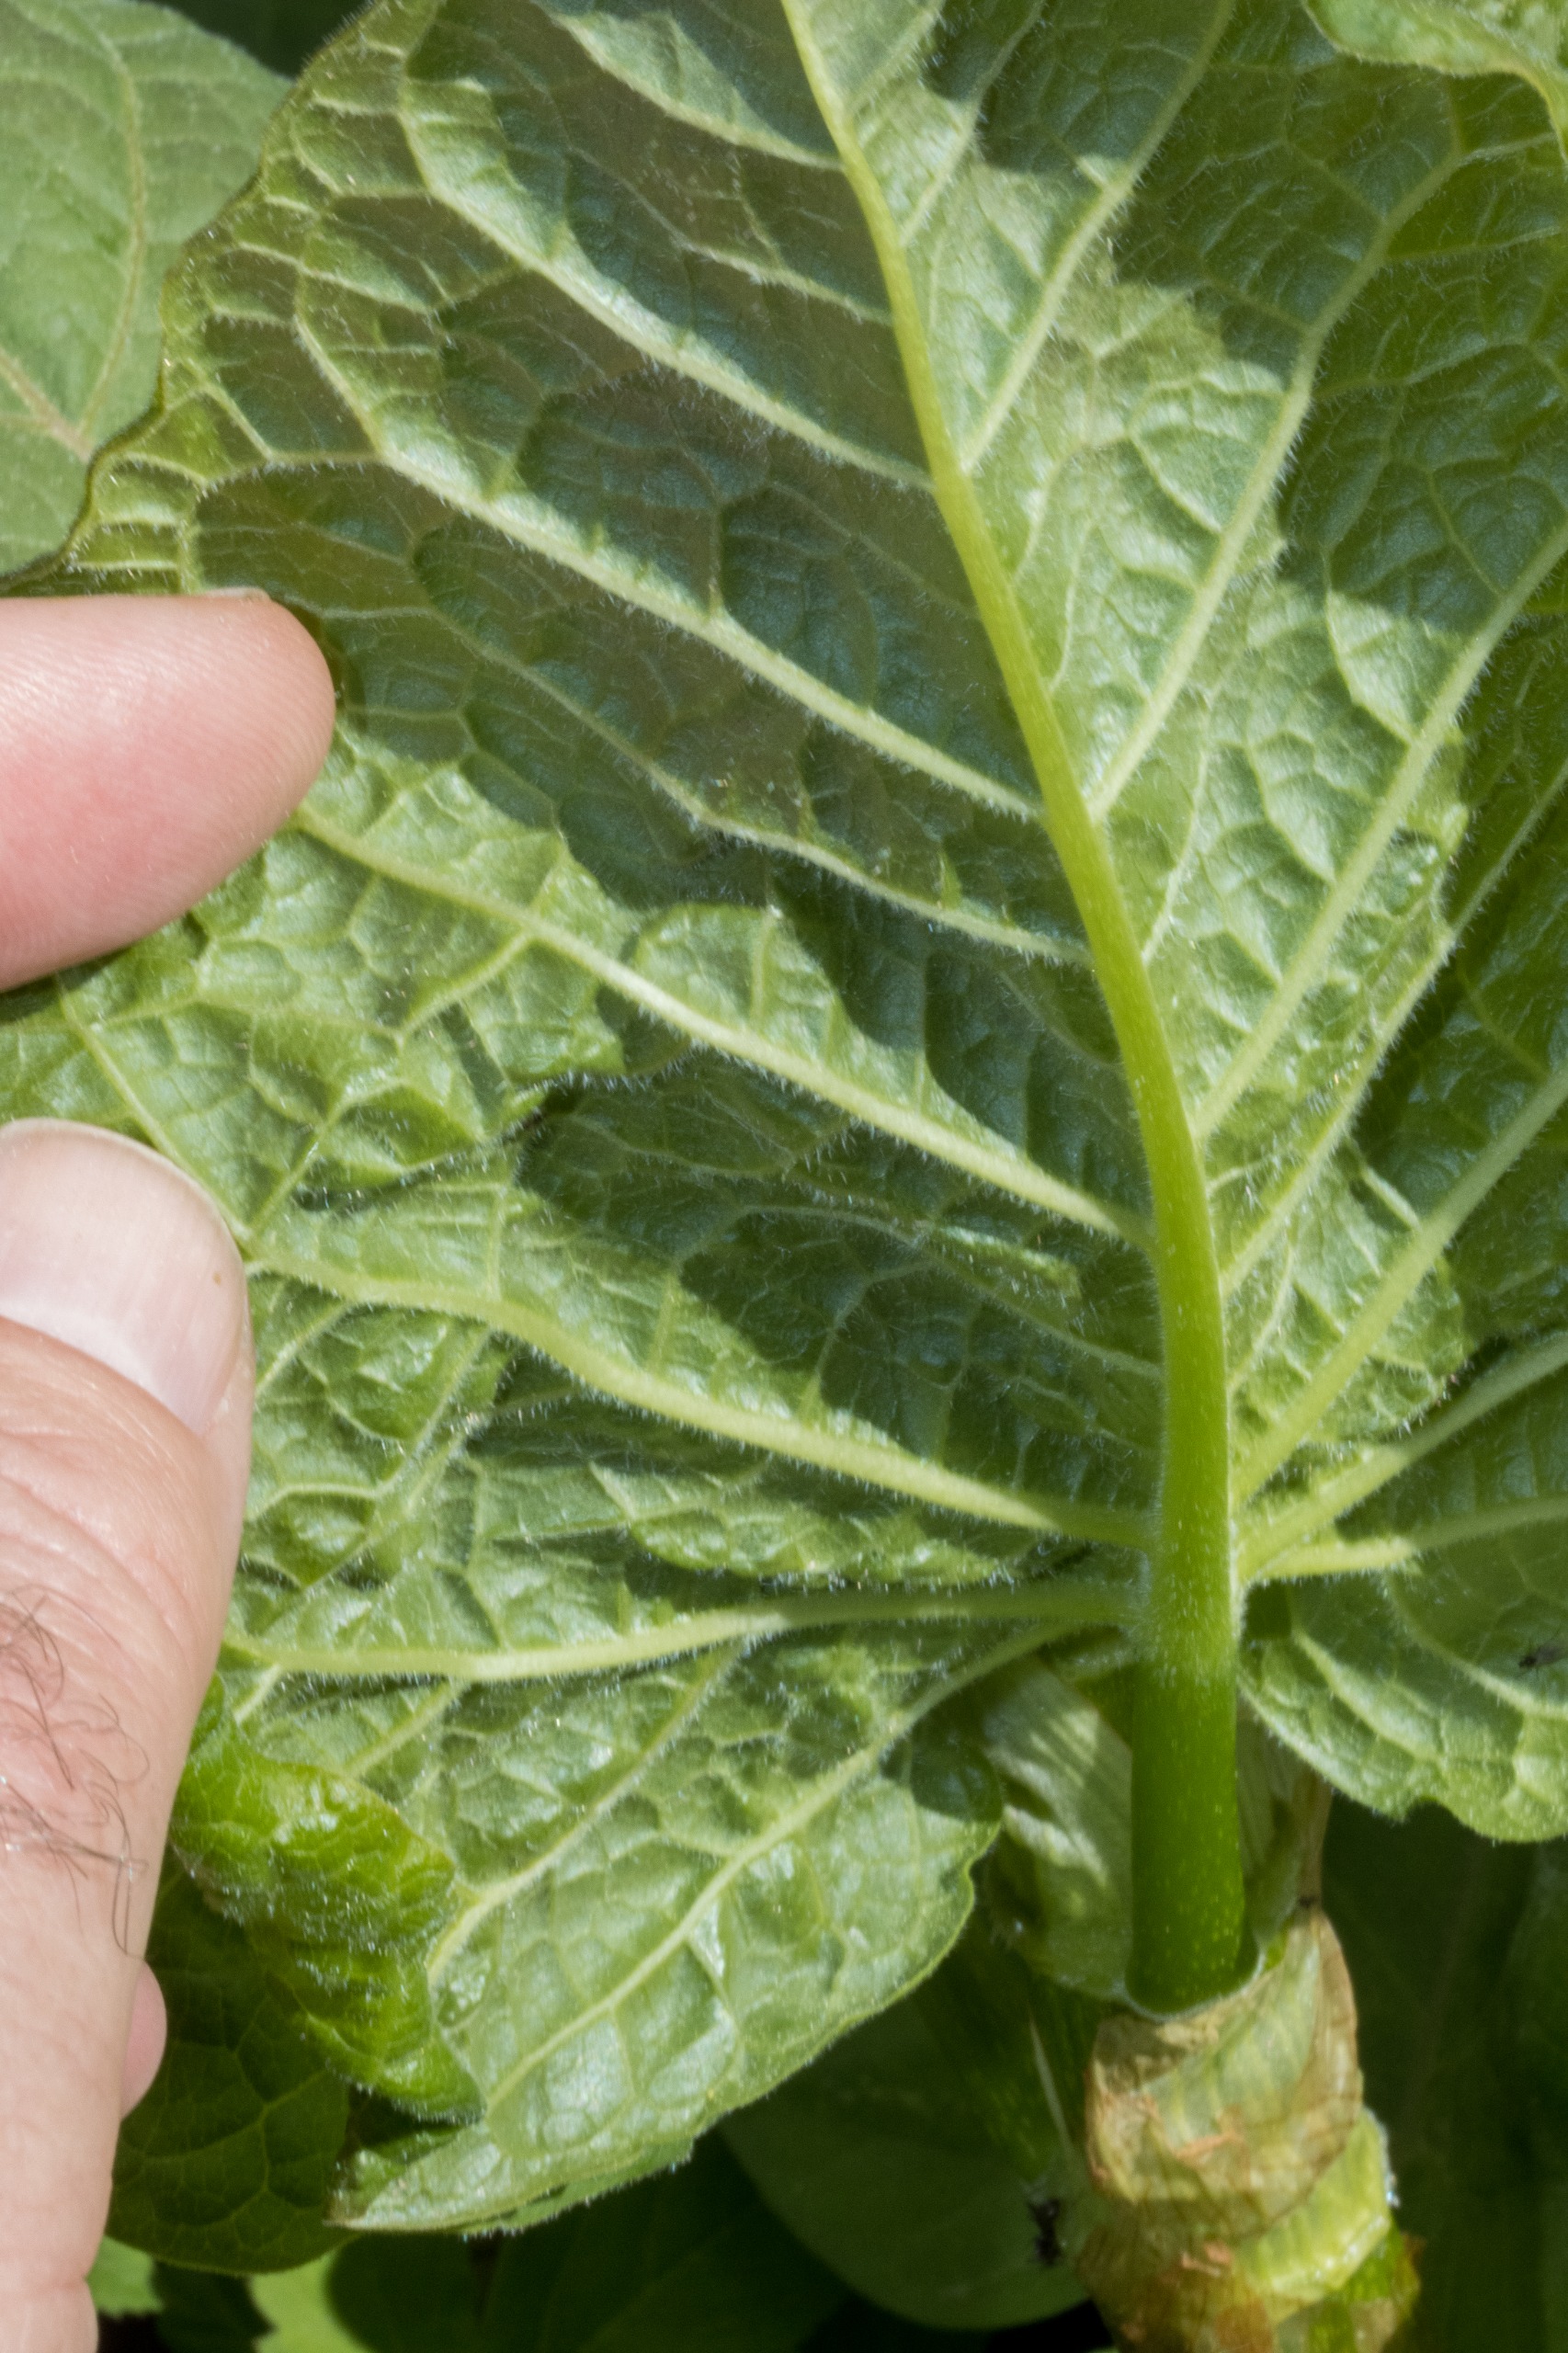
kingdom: Plantae
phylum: Tracheophyta
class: Magnoliopsida
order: Caryophyllales
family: Polygonaceae
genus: Reynoutria
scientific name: Reynoutria sachalinensis
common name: Kæmpe-pileurt
